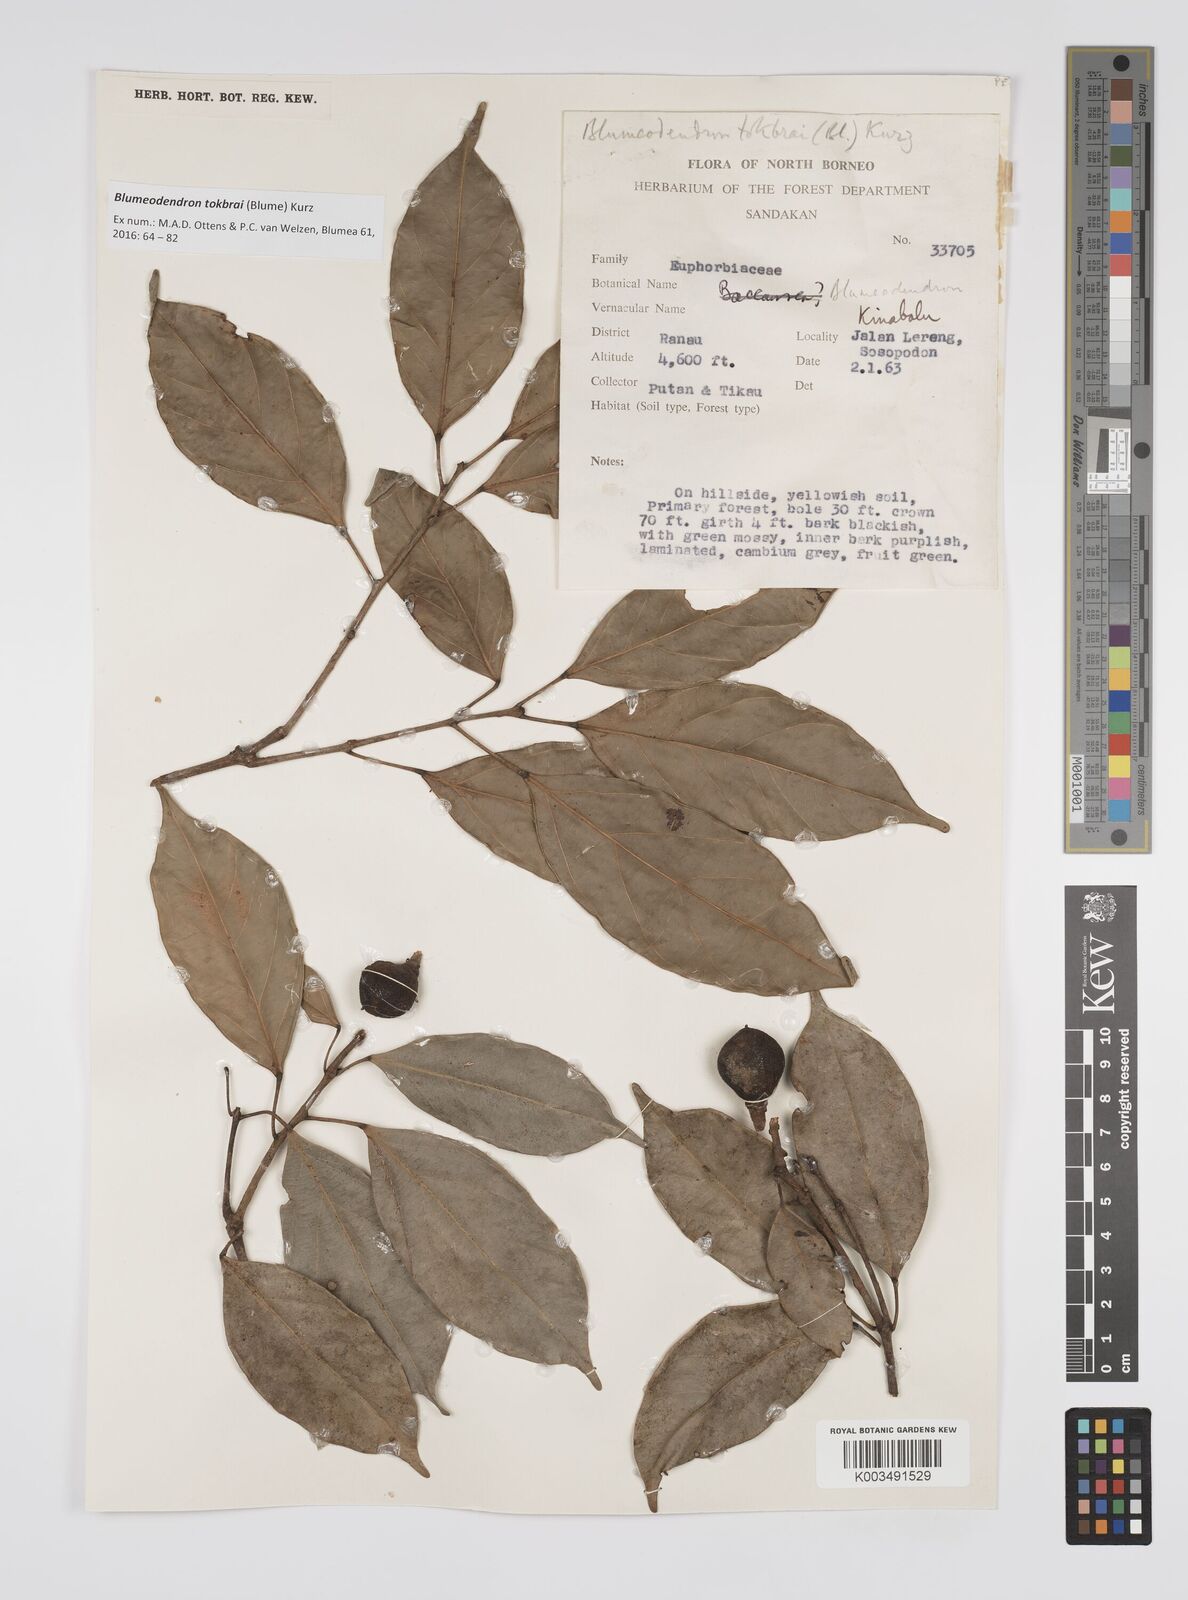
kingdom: Plantae
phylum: Tracheophyta
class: Magnoliopsida
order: Malpighiales
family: Euphorbiaceae
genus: Blumeodendron
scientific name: Blumeodendron tokbrai
